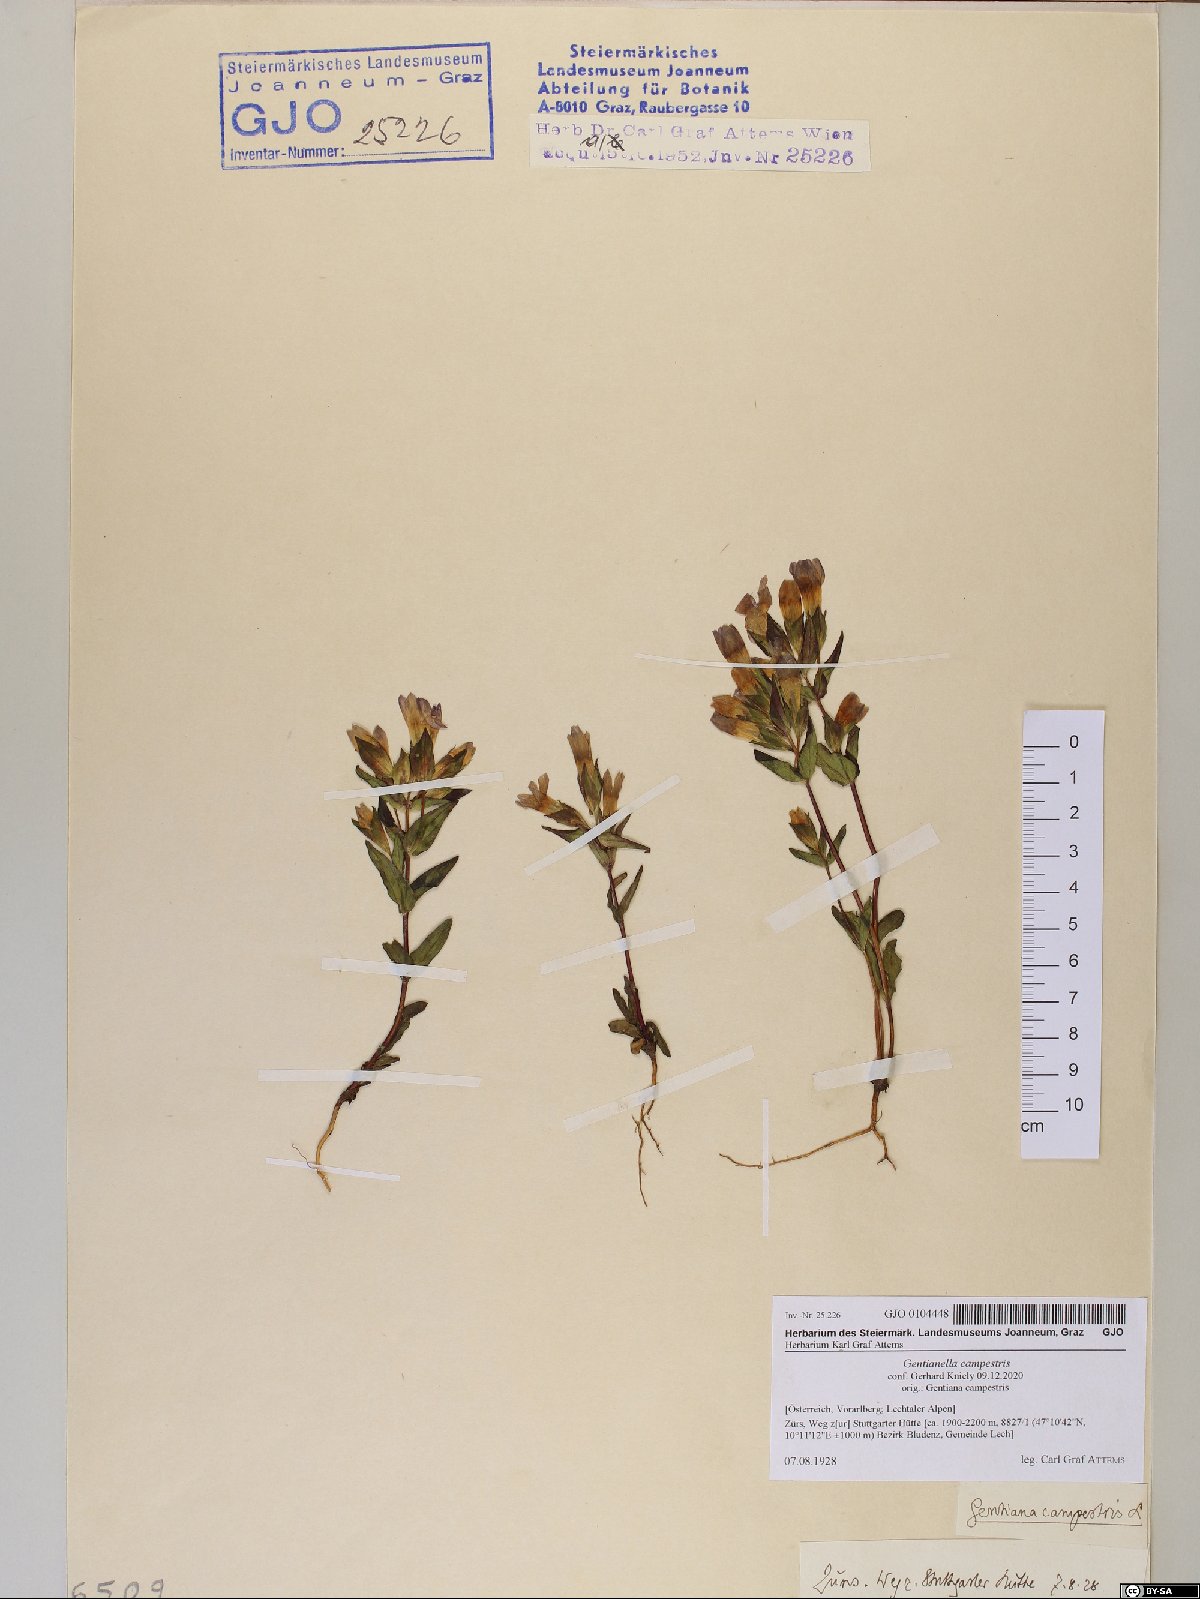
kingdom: Plantae
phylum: Tracheophyta
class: Magnoliopsida
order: Gentianales
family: Gentianaceae
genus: Gentianella
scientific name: Gentianella campestris
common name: Field gentian
